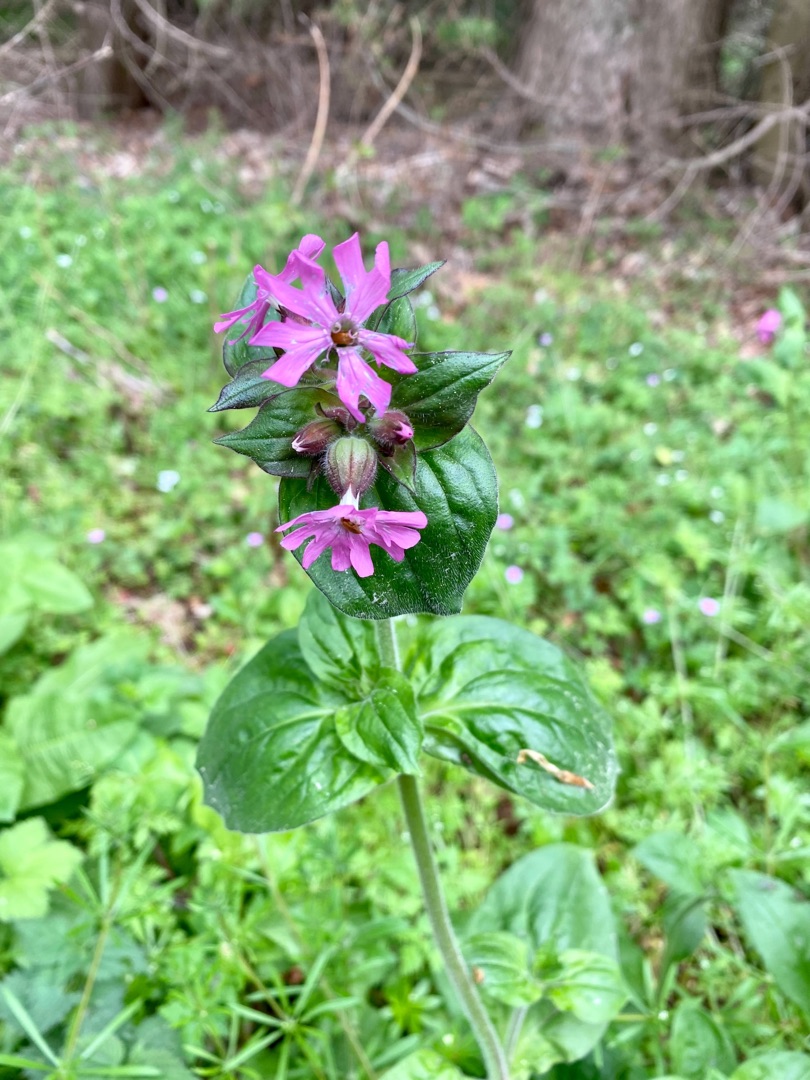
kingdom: Plantae
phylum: Tracheophyta
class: Magnoliopsida
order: Caryophyllales
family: Caryophyllaceae
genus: Silene
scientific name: Silene dioica
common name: Dagpragtstjerne
